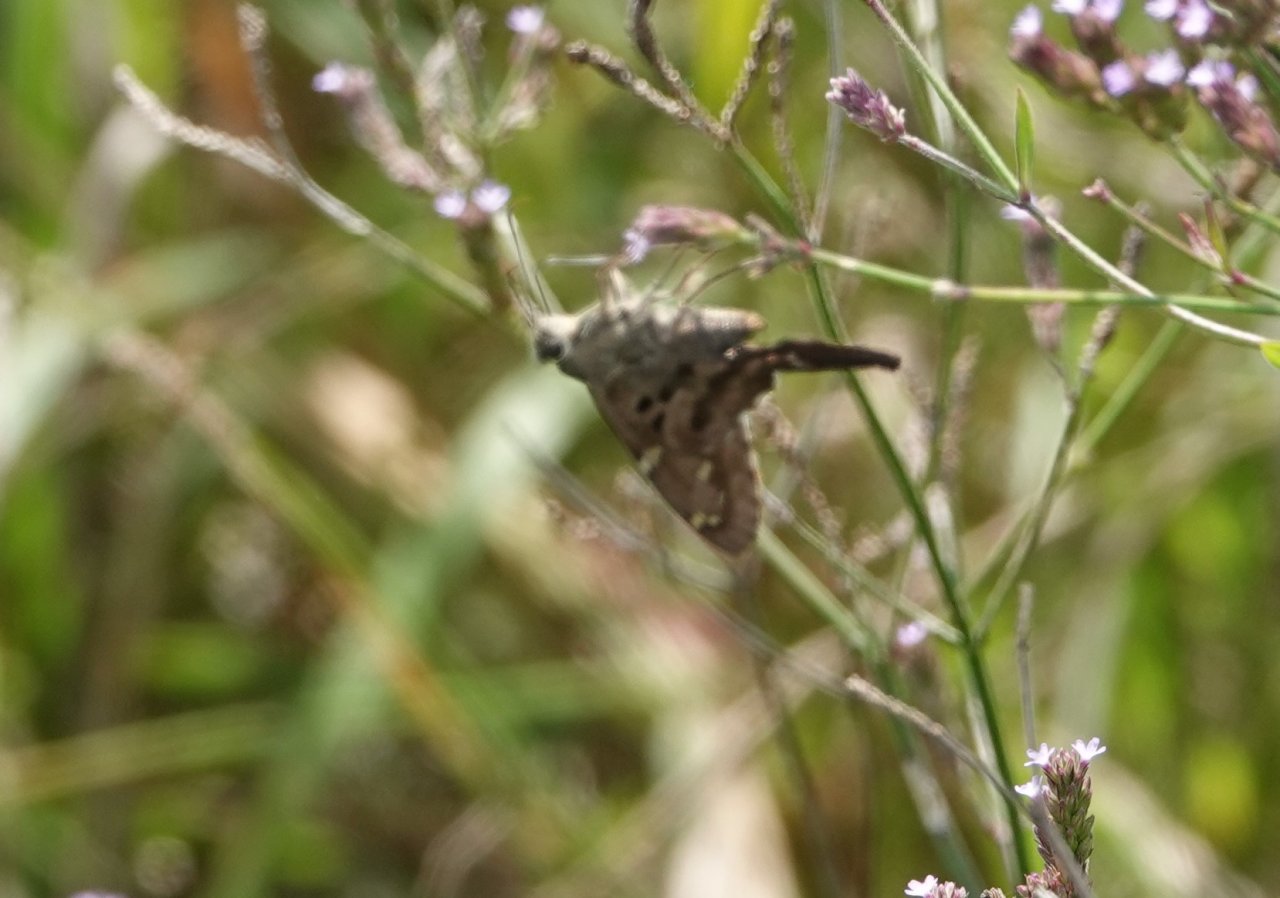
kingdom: Animalia
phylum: Arthropoda
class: Insecta
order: Lepidoptera
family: Hesperiidae
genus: Urbanus
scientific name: Urbanus proteus
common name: Long-tailed Skipper
